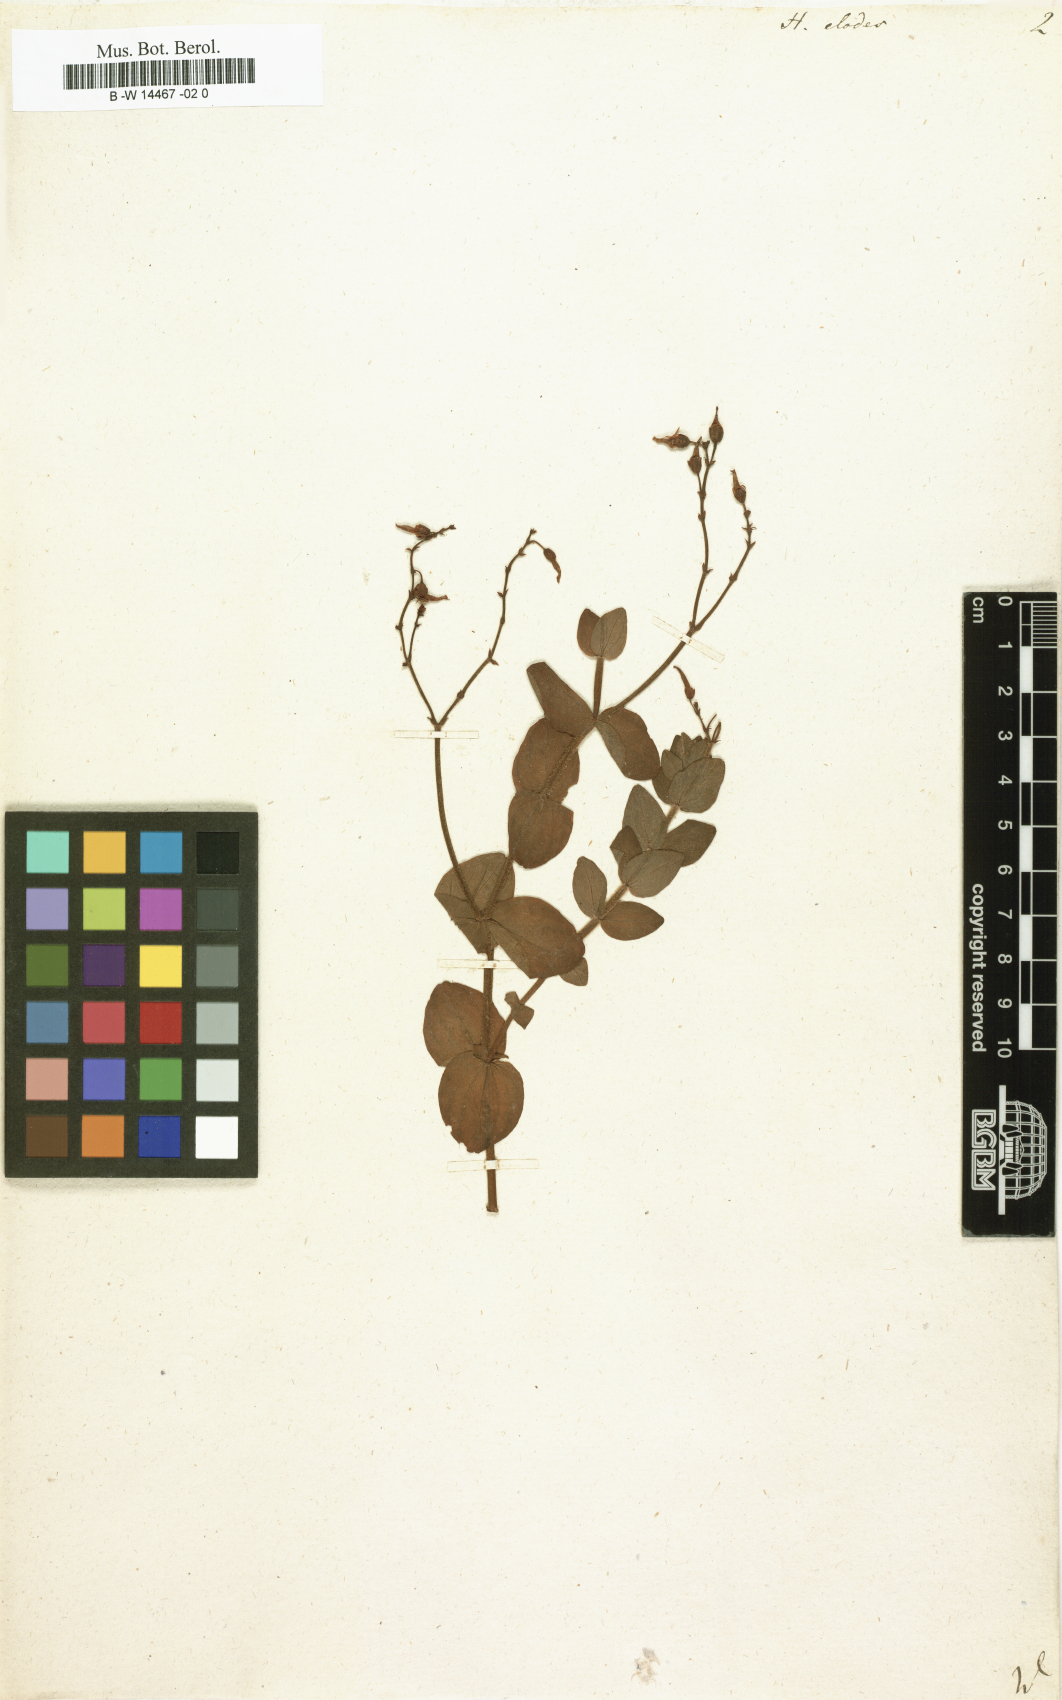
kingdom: Plantae
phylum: Tracheophyta
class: Magnoliopsida
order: Malpighiales
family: Hypericaceae
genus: Hypericum
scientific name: Hypericum elodes
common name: Marsh st. john's-wort
